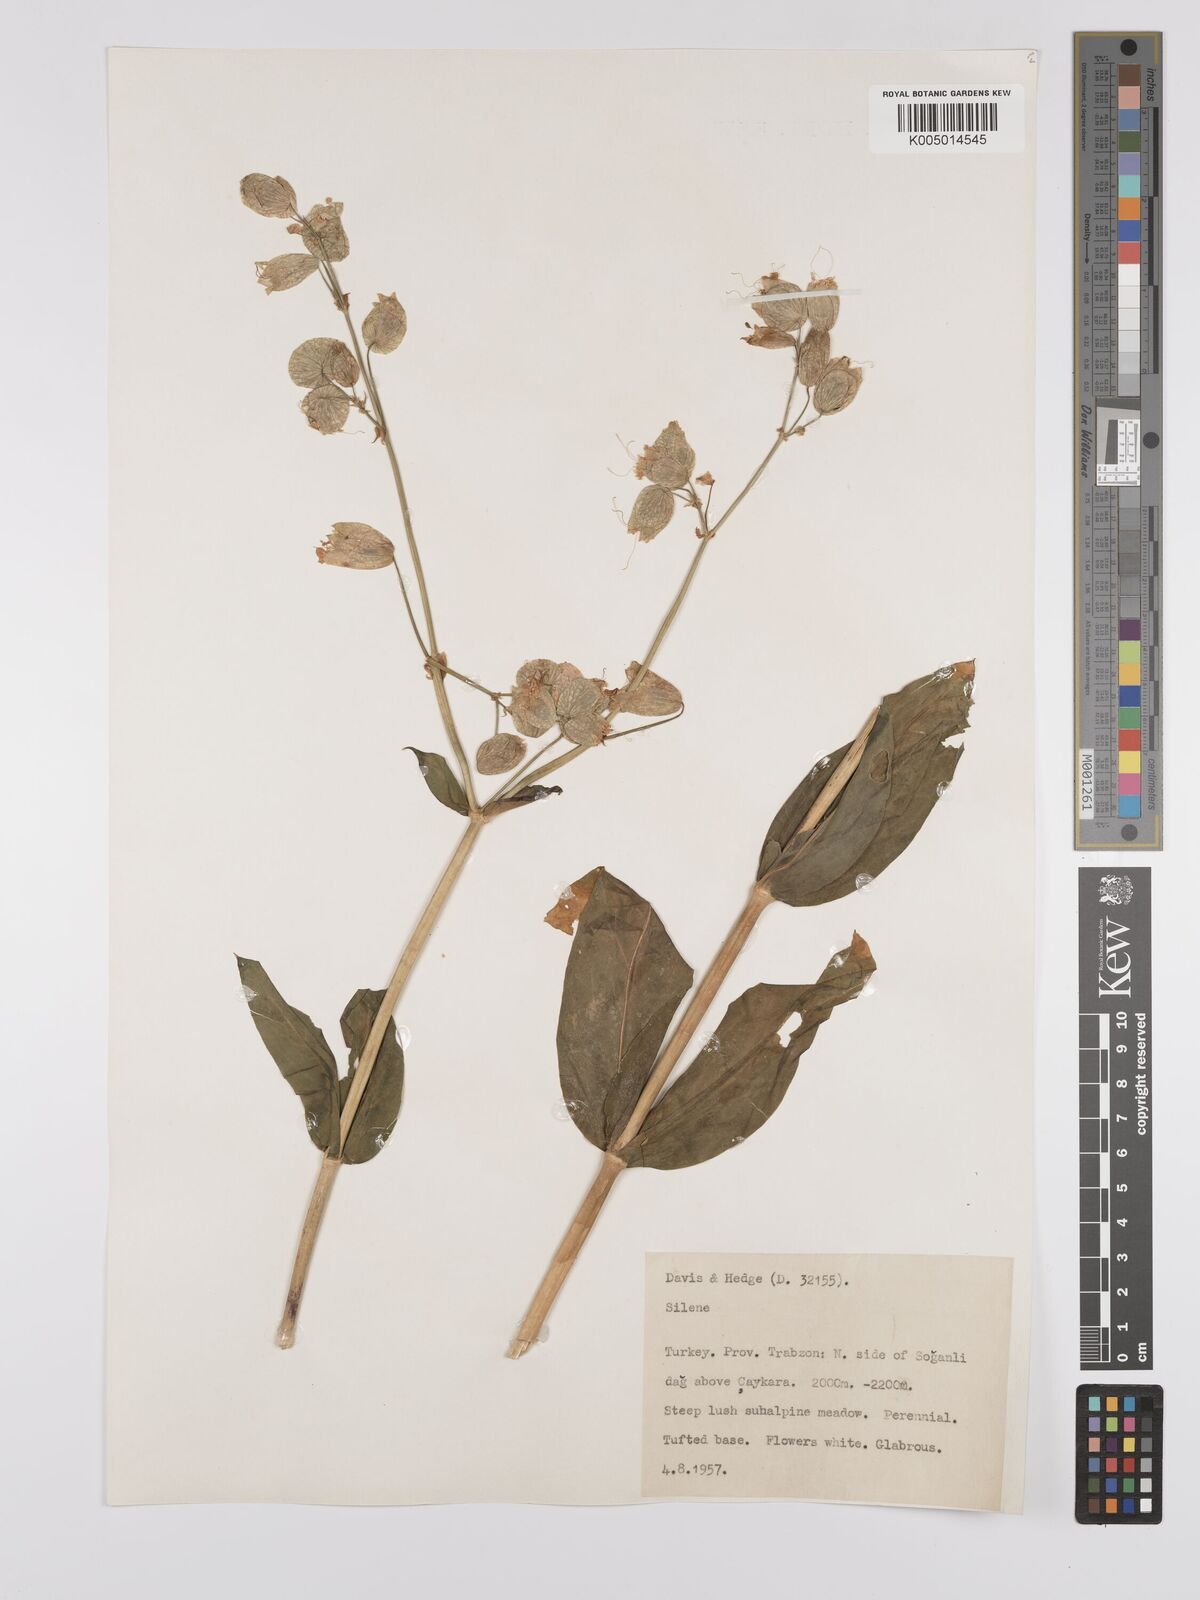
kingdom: Plantae
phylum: Tracheophyta
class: Magnoliopsida
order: Caryophyllales
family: Caryophyllaceae
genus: Silene
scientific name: Silene
